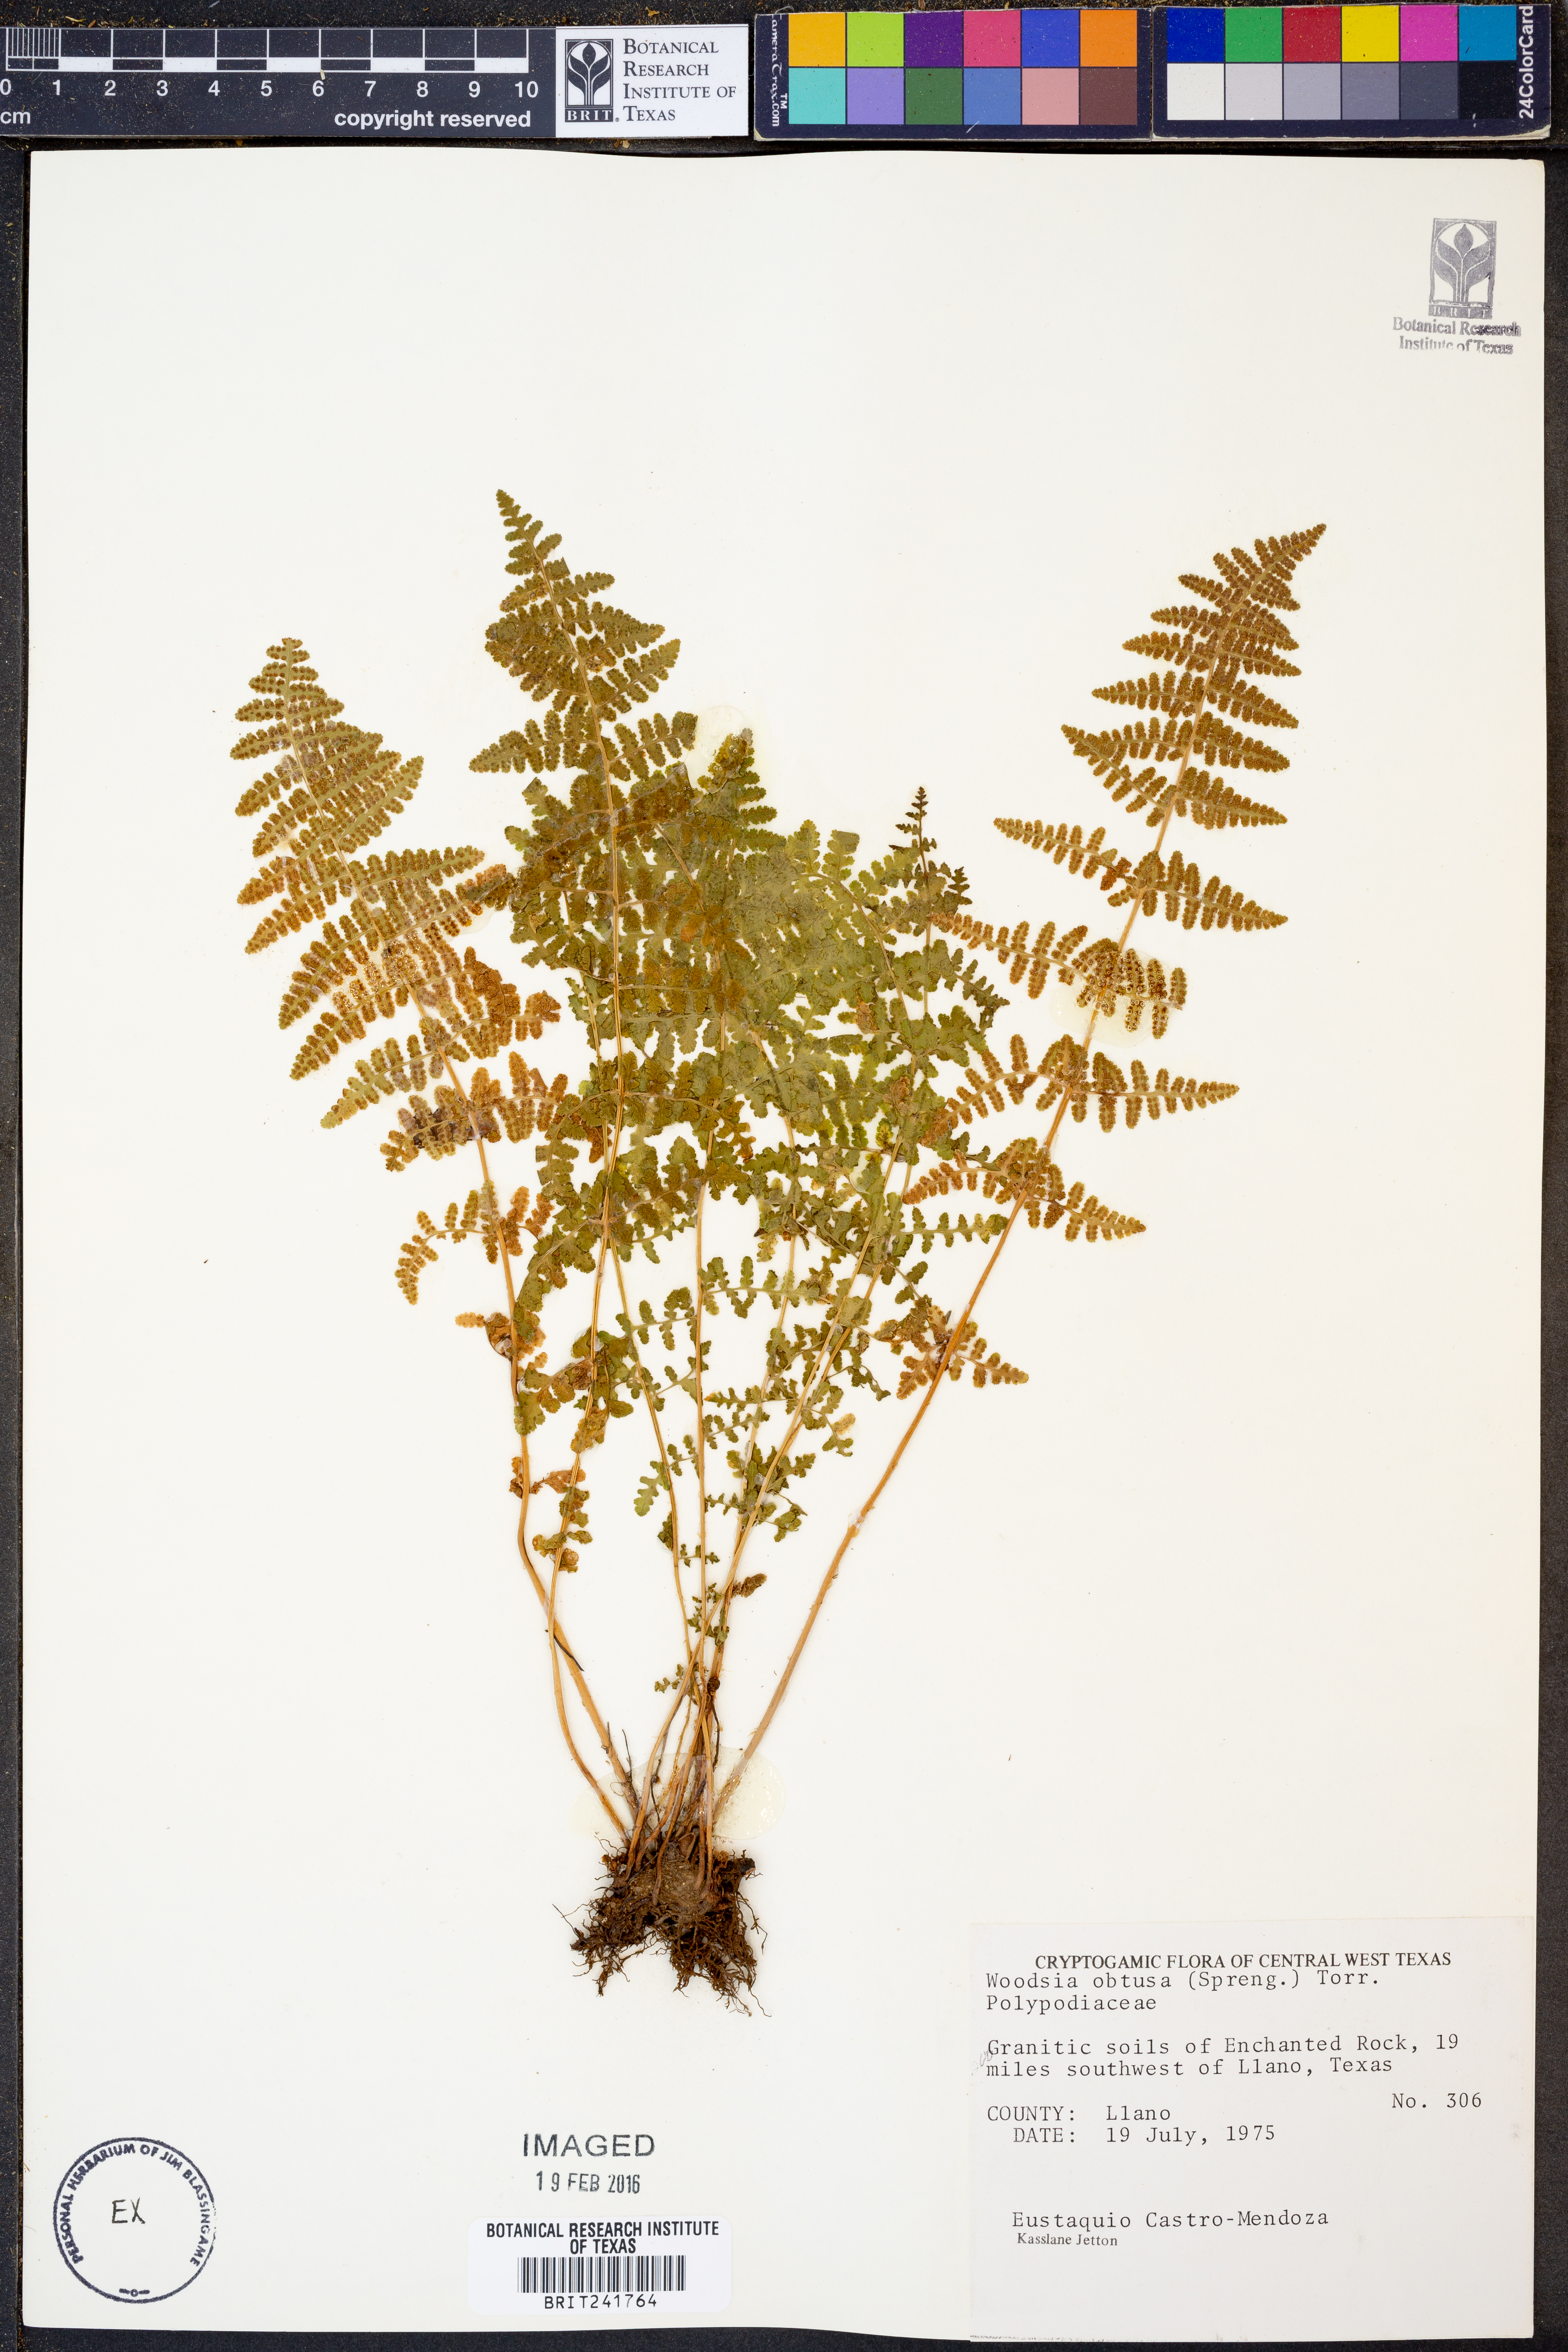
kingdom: Plantae
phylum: Tracheophyta
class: Polypodiopsida
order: Polypodiales
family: Woodsiaceae
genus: Physematium
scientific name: Physematium obtusum
